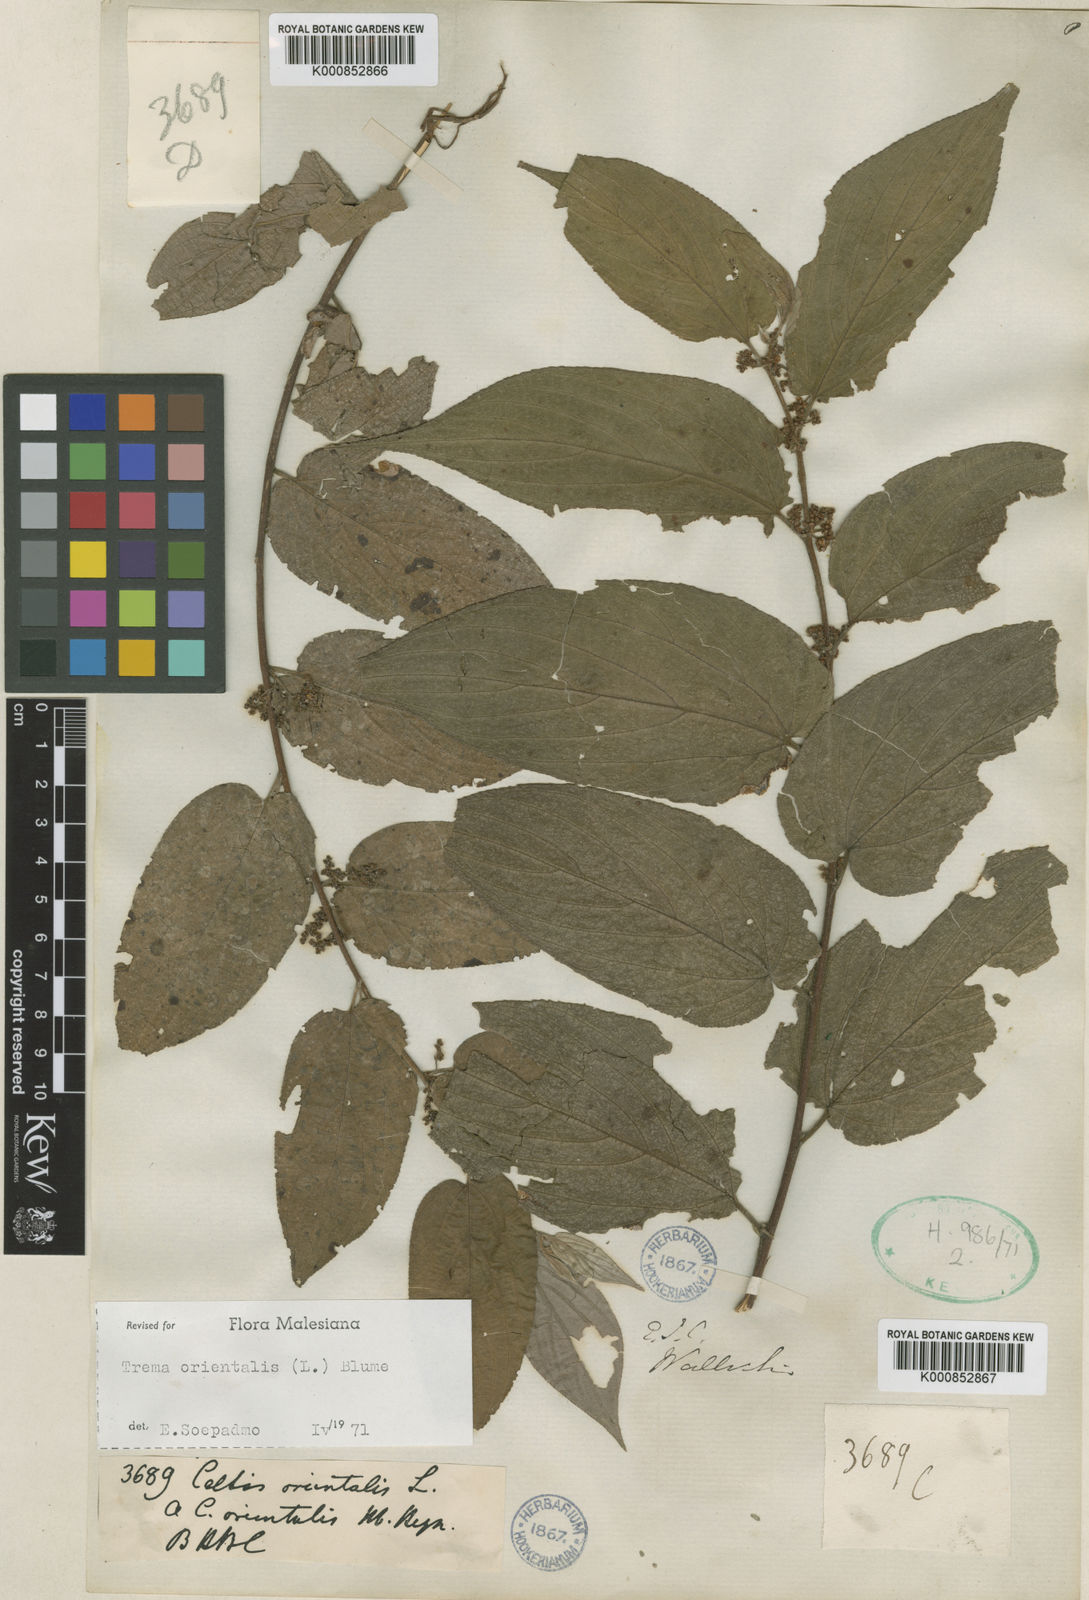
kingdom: Plantae
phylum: Tracheophyta
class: Magnoliopsida
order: Rosales
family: Cannabaceae
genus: Trema
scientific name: Trema
